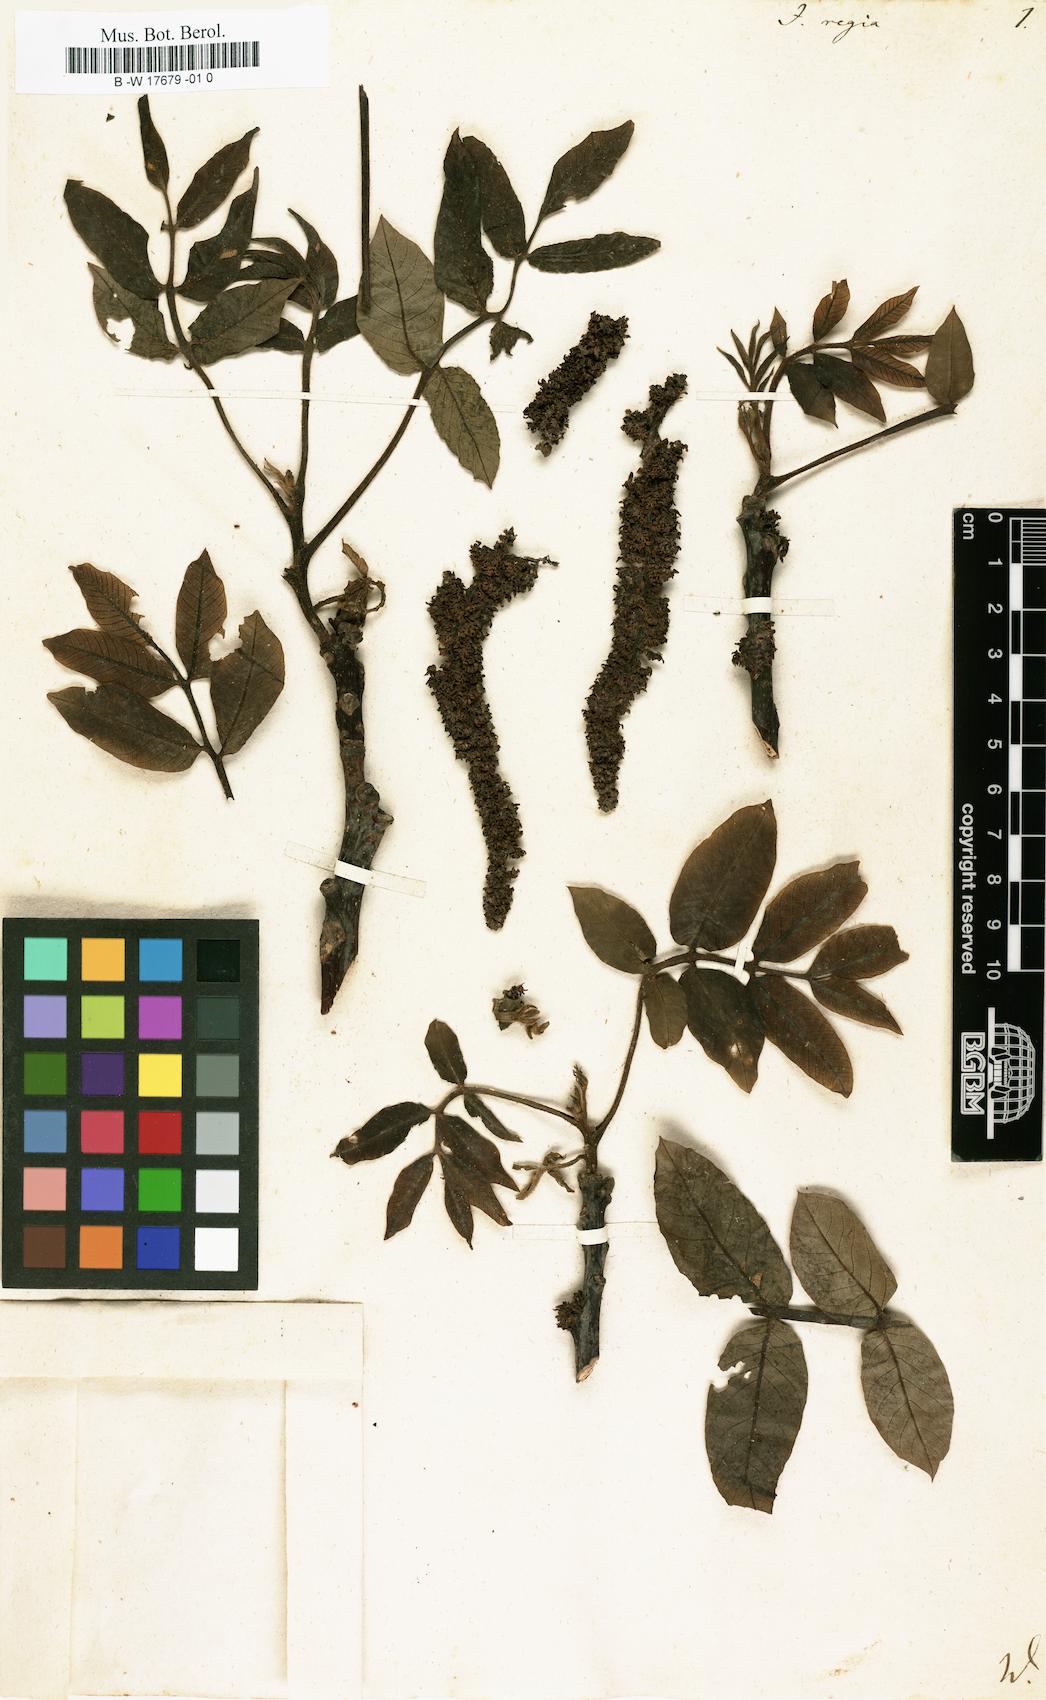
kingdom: Plantae
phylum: Tracheophyta
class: Magnoliopsida
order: Fagales
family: Juglandaceae
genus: Juglans
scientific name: Juglans regia
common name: Walnut
